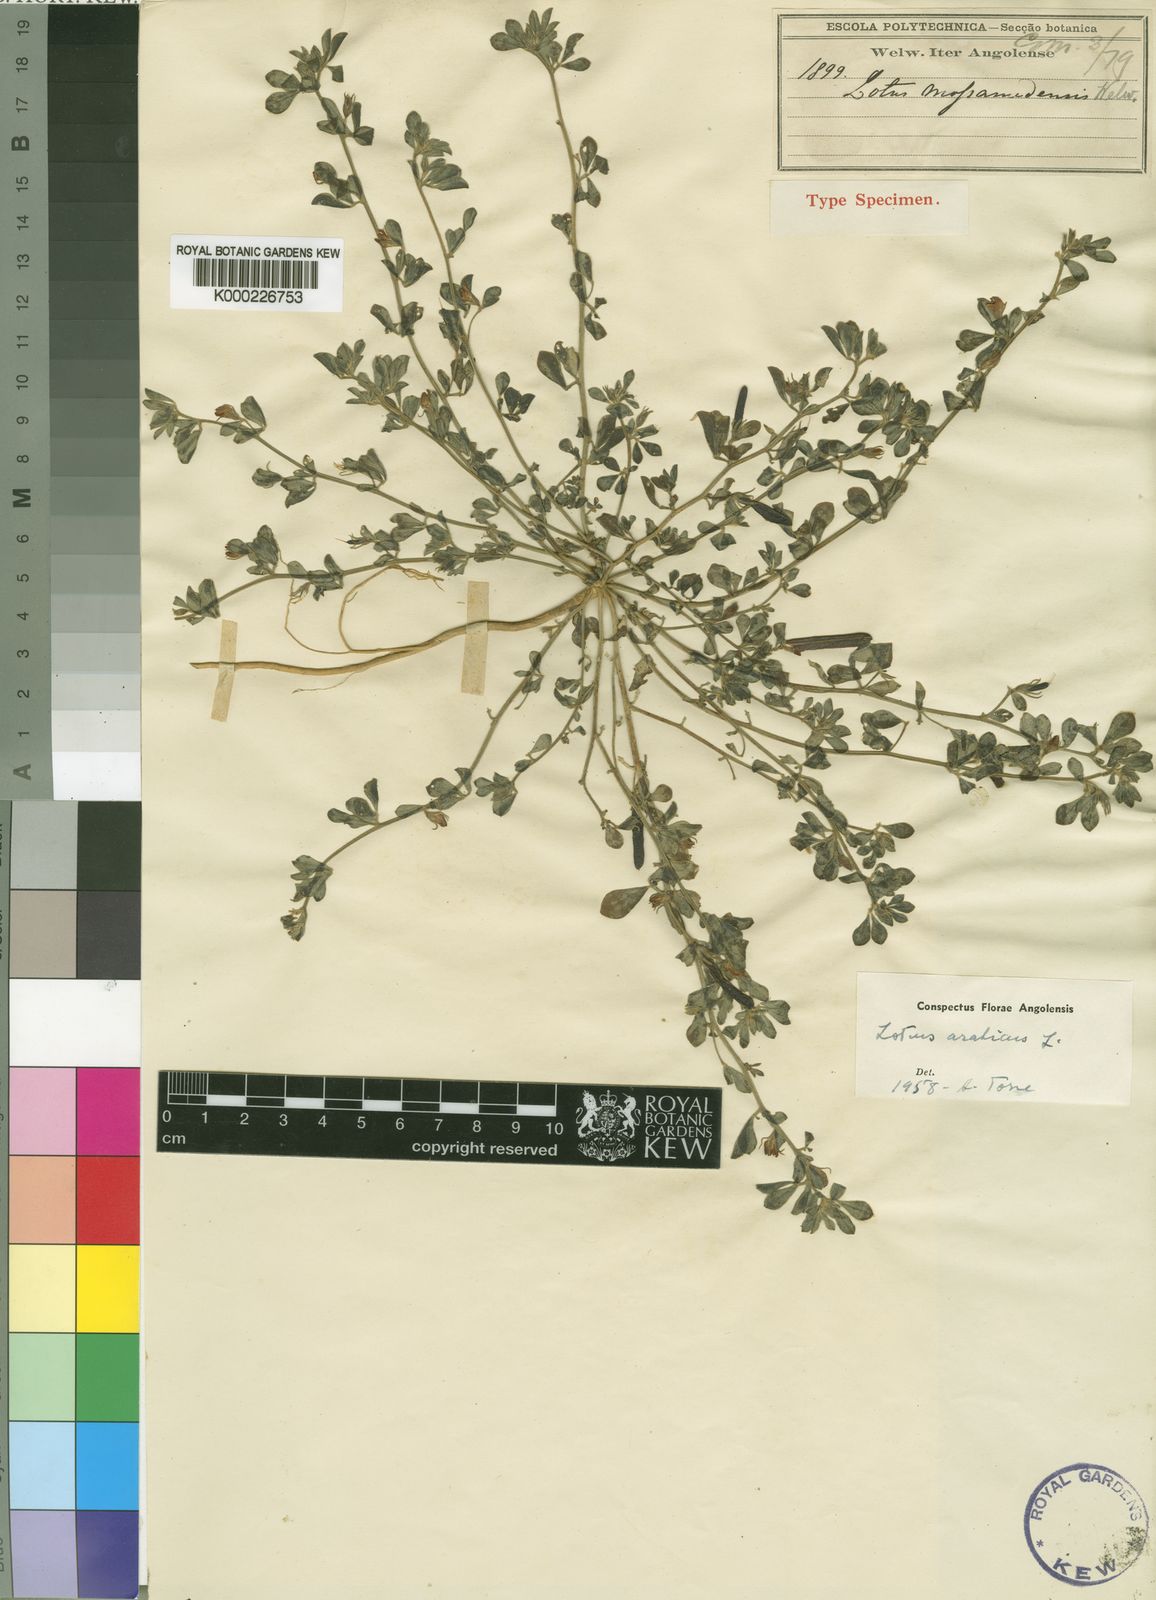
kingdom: Plantae
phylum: Tracheophyta
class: Magnoliopsida
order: Fabales
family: Fabaceae
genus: Lotus
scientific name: Lotus arabicus
